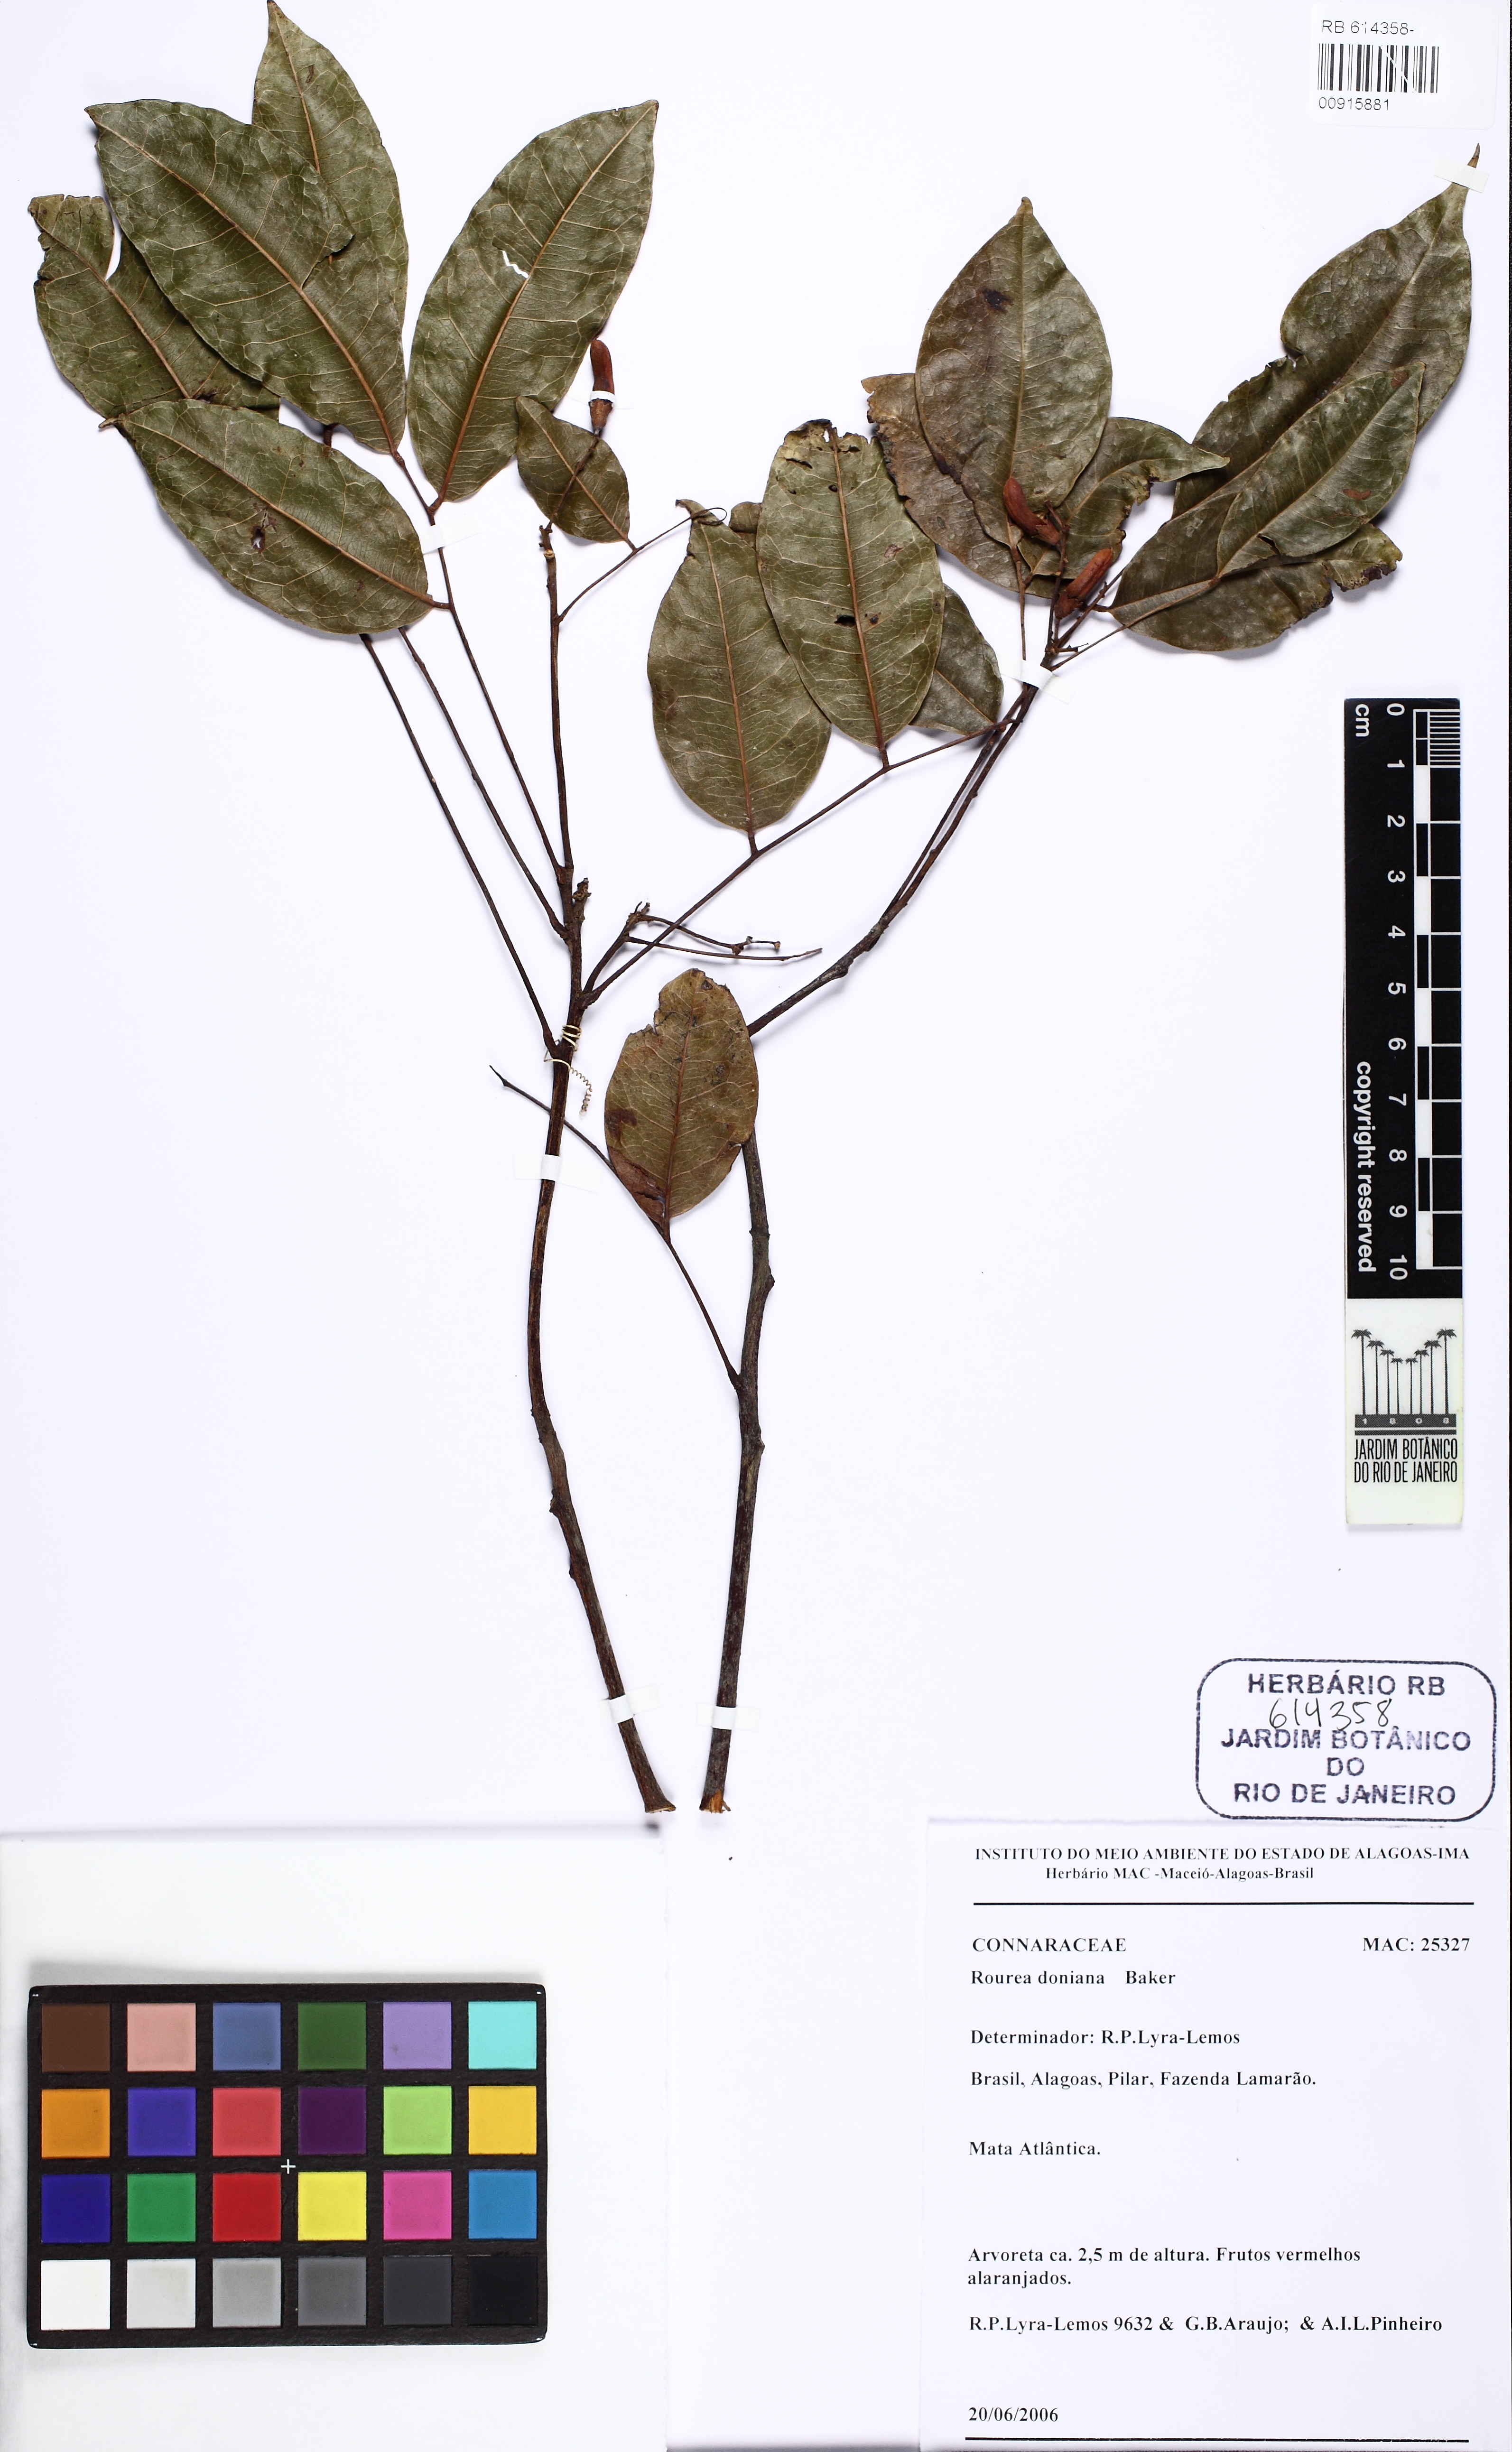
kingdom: Plantae
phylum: Tracheophyta
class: Magnoliopsida
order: Oxalidales
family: Connaraceae
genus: Rourea
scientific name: Rourea doniana
